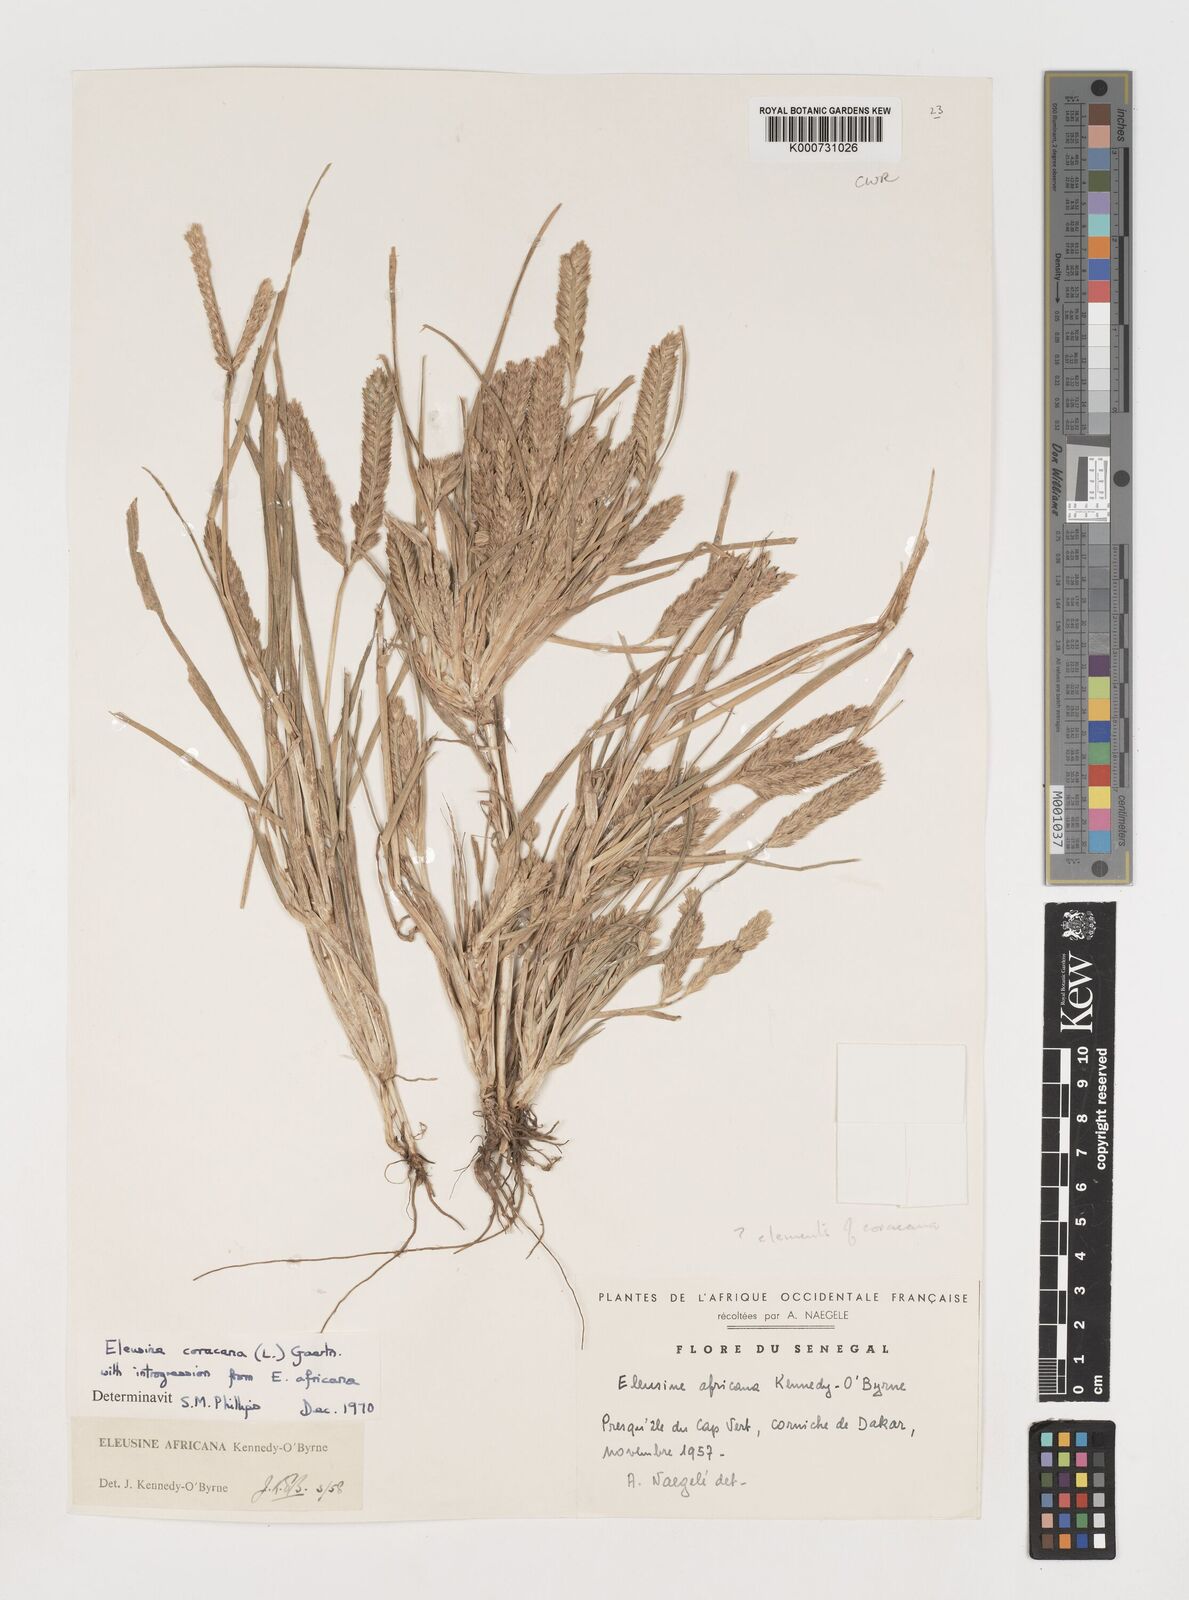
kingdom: Plantae
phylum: Tracheophyta
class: Liliopsida
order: Poales
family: Poaceae
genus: Eleusine
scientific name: Eleusine coracana
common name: Finger millet
